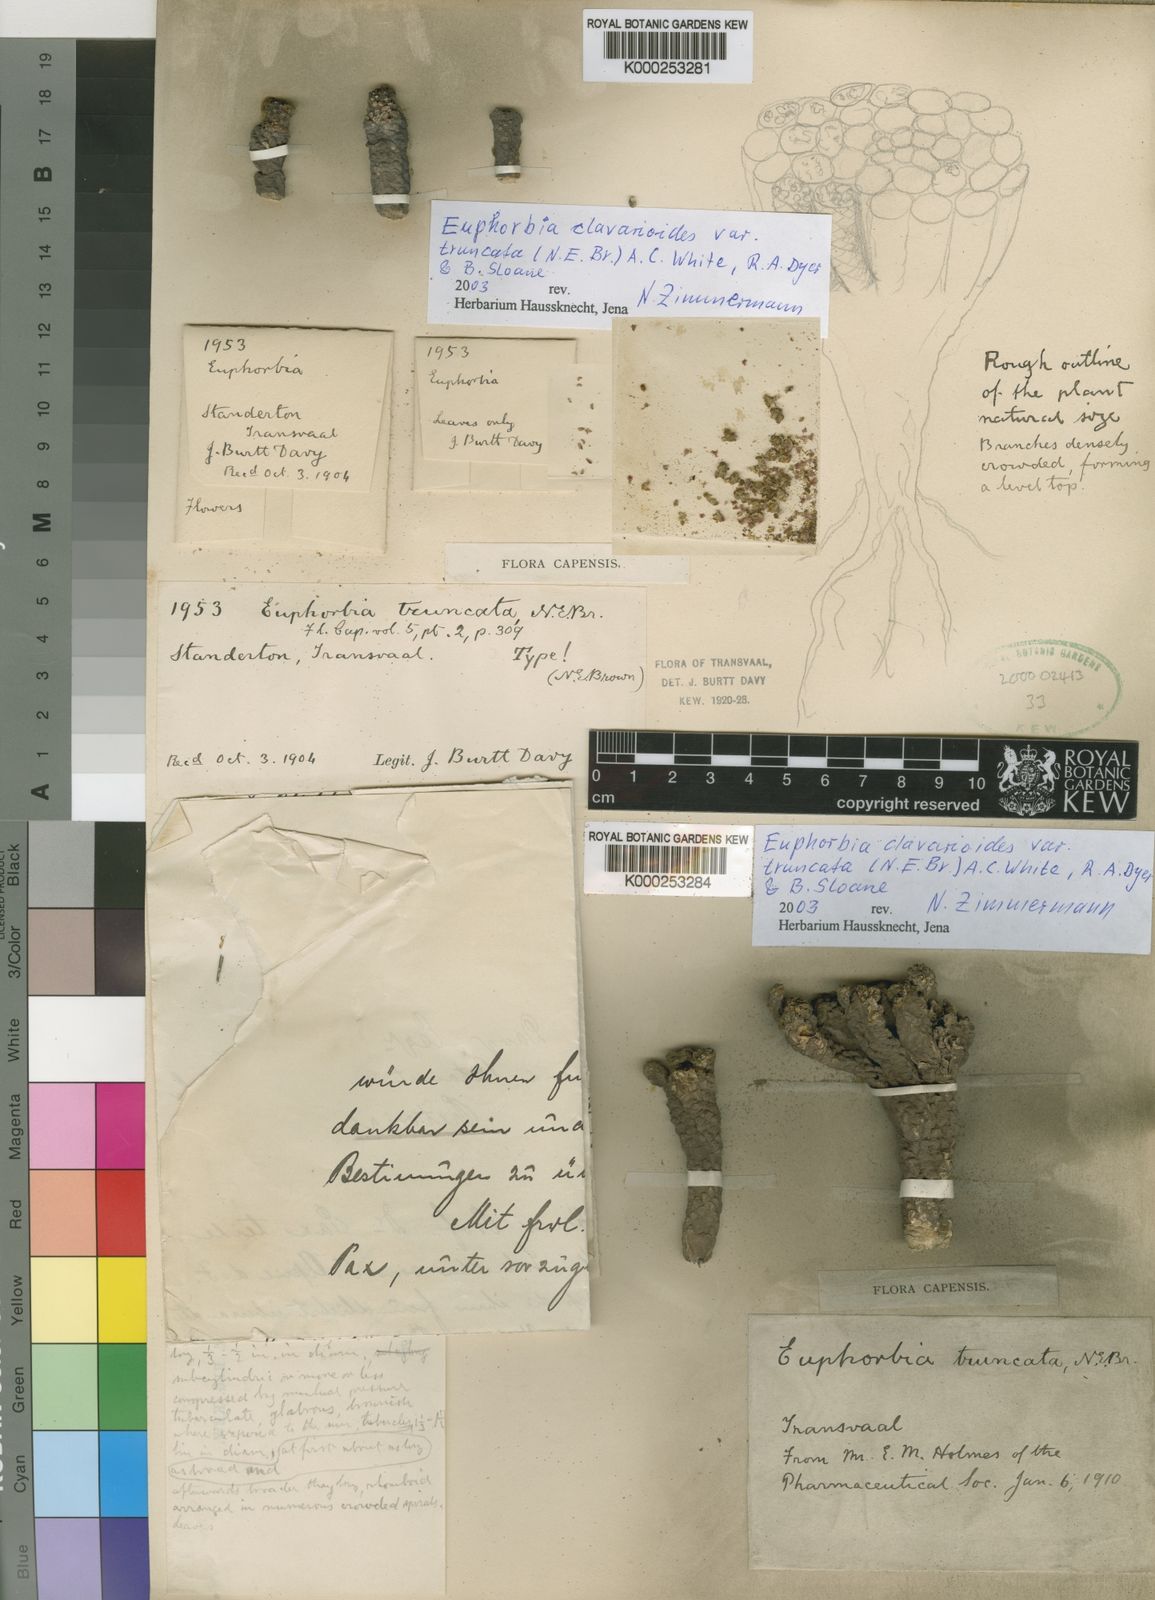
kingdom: Plantae
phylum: Tracheophyta
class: Magnoliopsida
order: Malpighiales
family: Euphorbiaceae
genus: Euphorbia
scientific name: Euphorbia clavarioides
